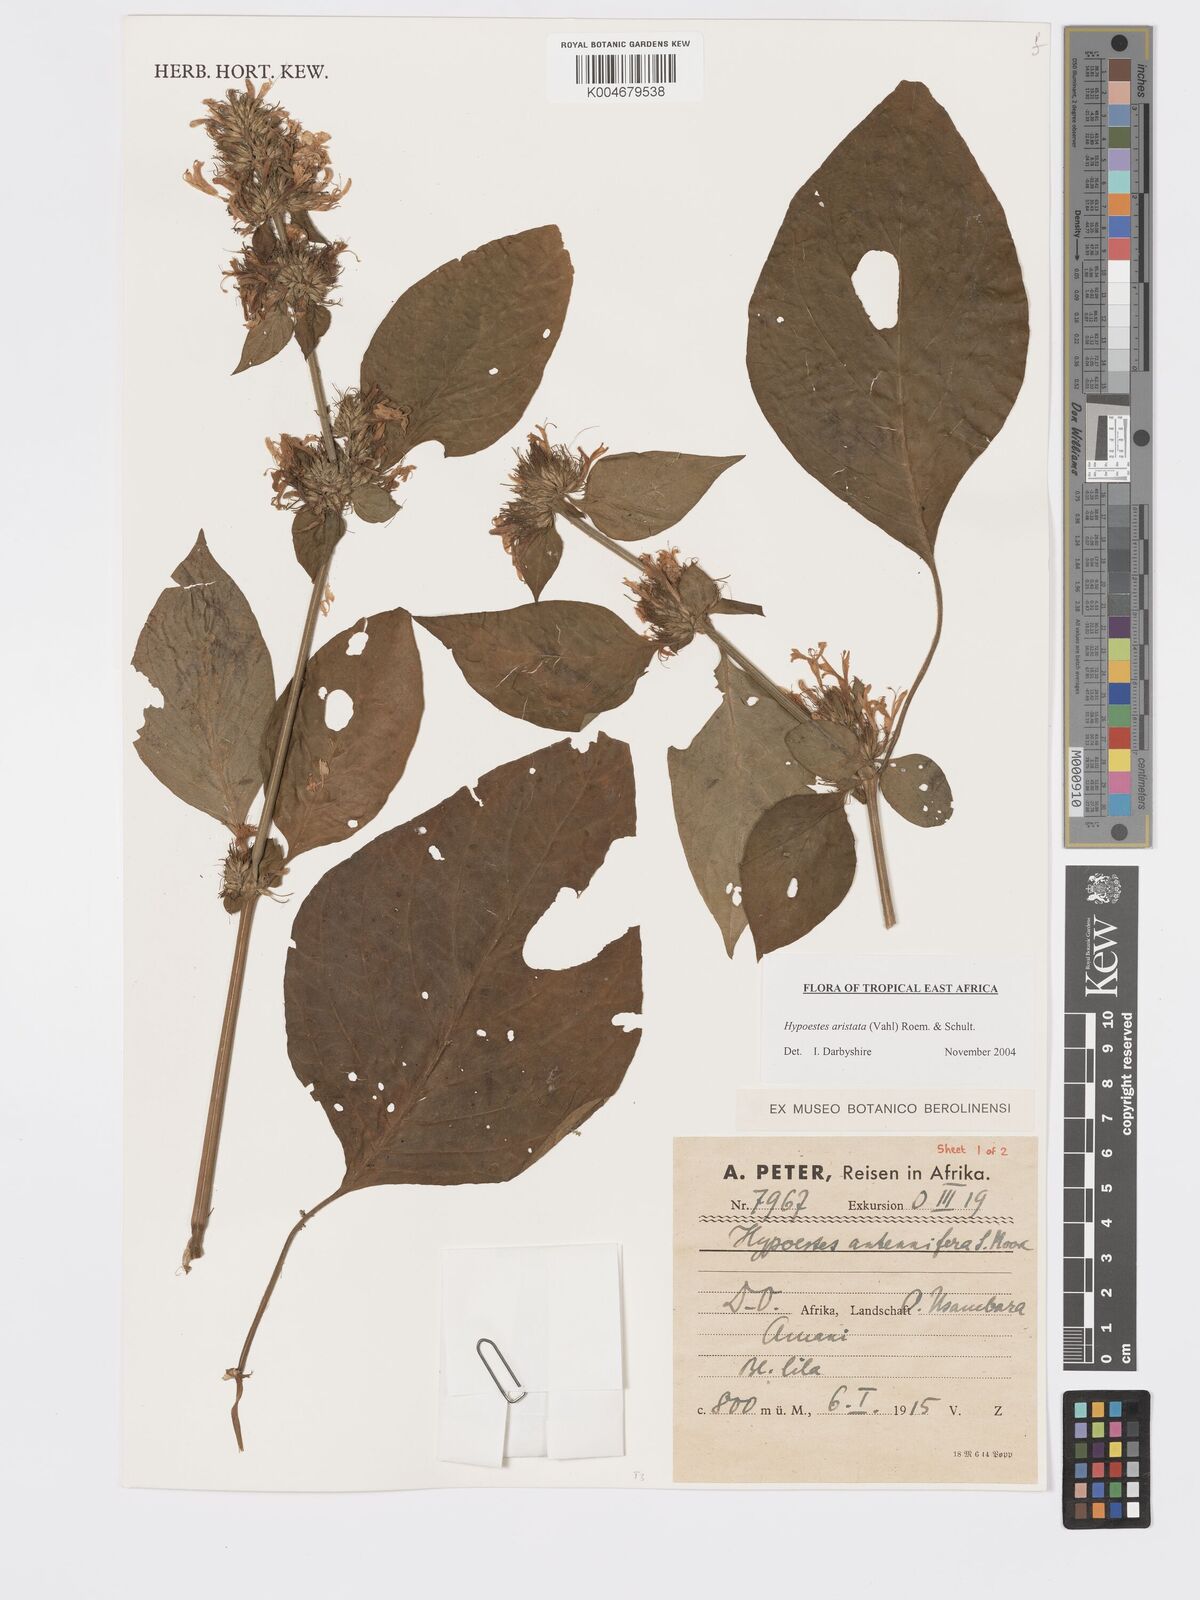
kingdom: Plantae
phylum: Tracheophyta
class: Magnoliopsida
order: Lamiales
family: Acanthaceae
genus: Hypoestes
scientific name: Hypoestes aristata
